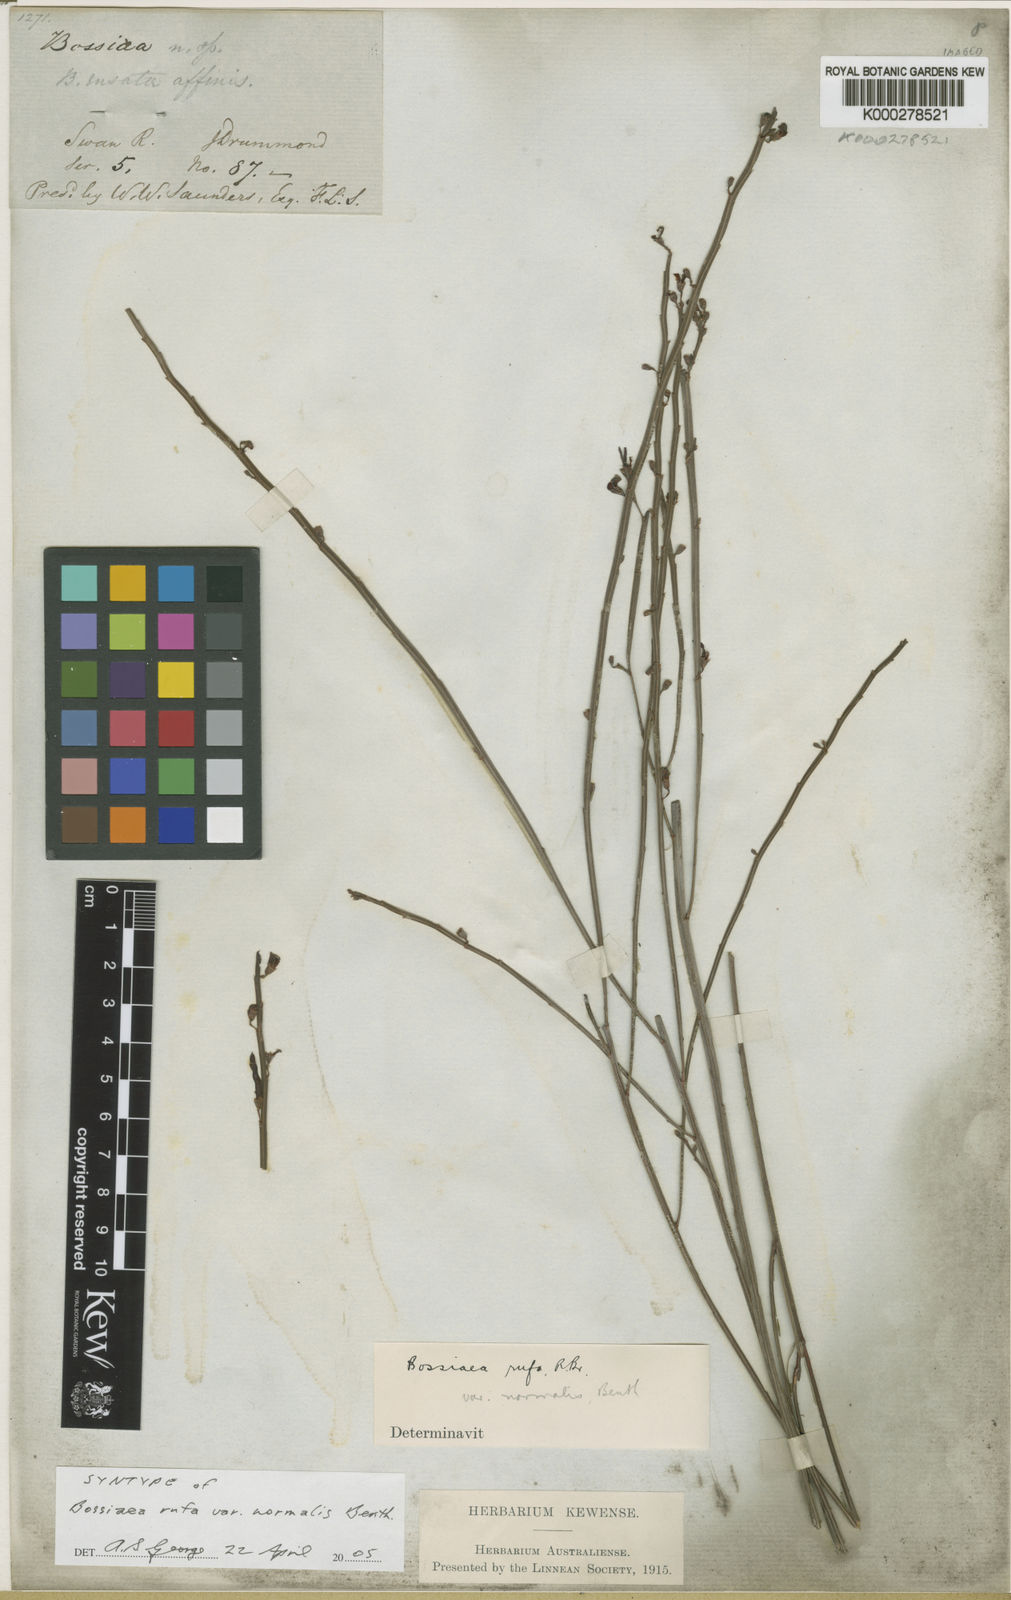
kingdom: Plantae
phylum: Tracheophyta
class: Magnoliopsida
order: Fabales
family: Fabaceae
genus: Bossiaea
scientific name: Bossiaea rufa
